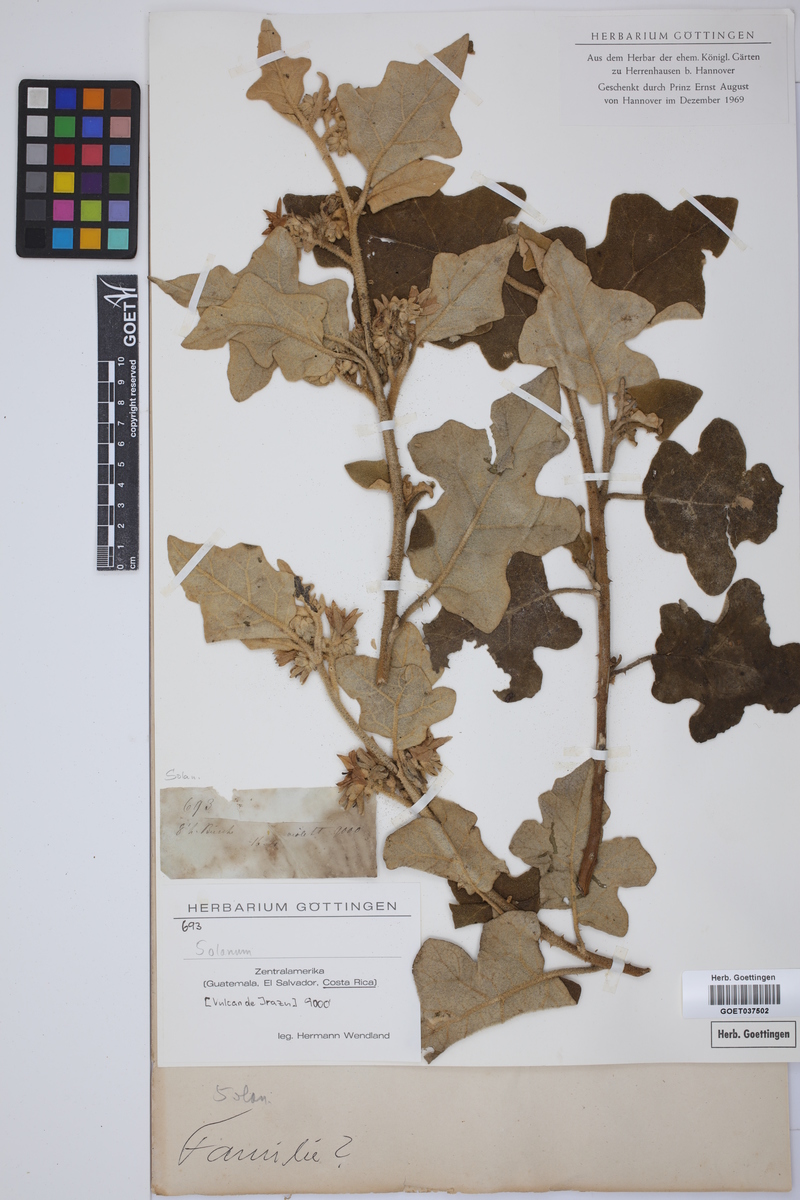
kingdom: Plantae
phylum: Tracheophyta
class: Magnoliopsida
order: Solanales
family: Solanaceae
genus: Solanum
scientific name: Solanum
